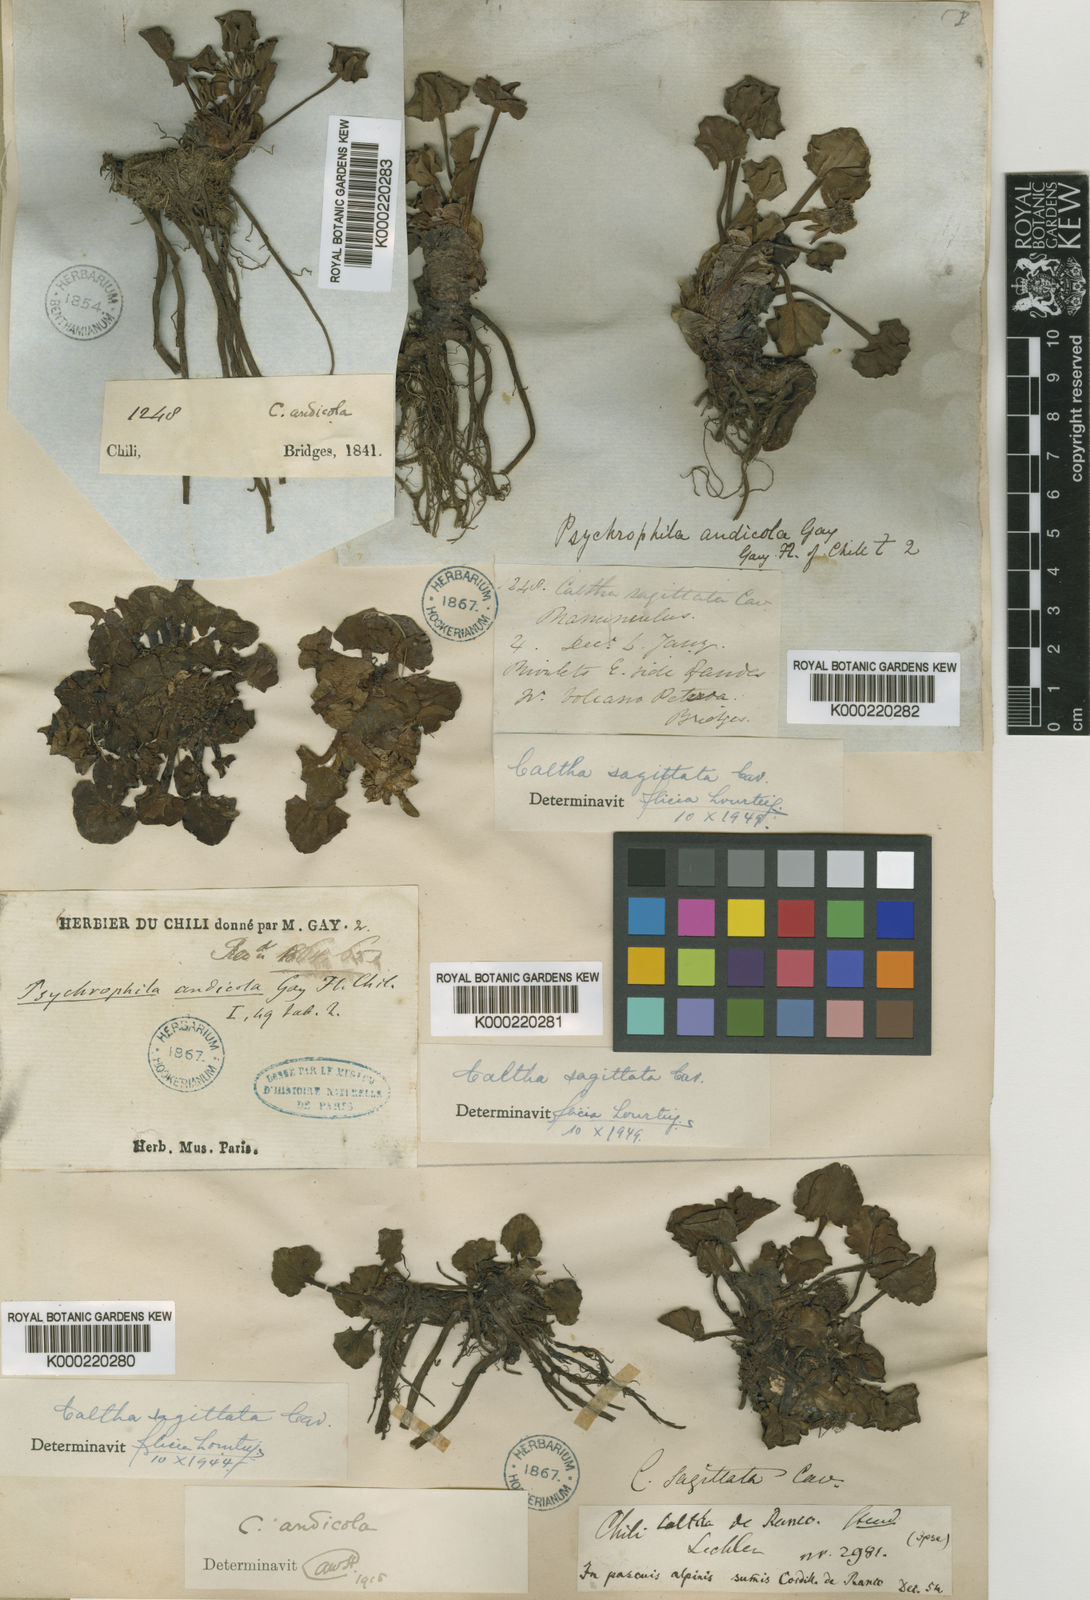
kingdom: Plantae
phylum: Tracheophyta
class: Magnoliopsida
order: Ranunculales
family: Ranunculaceae
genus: Caltha
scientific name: Caltha sagittata
